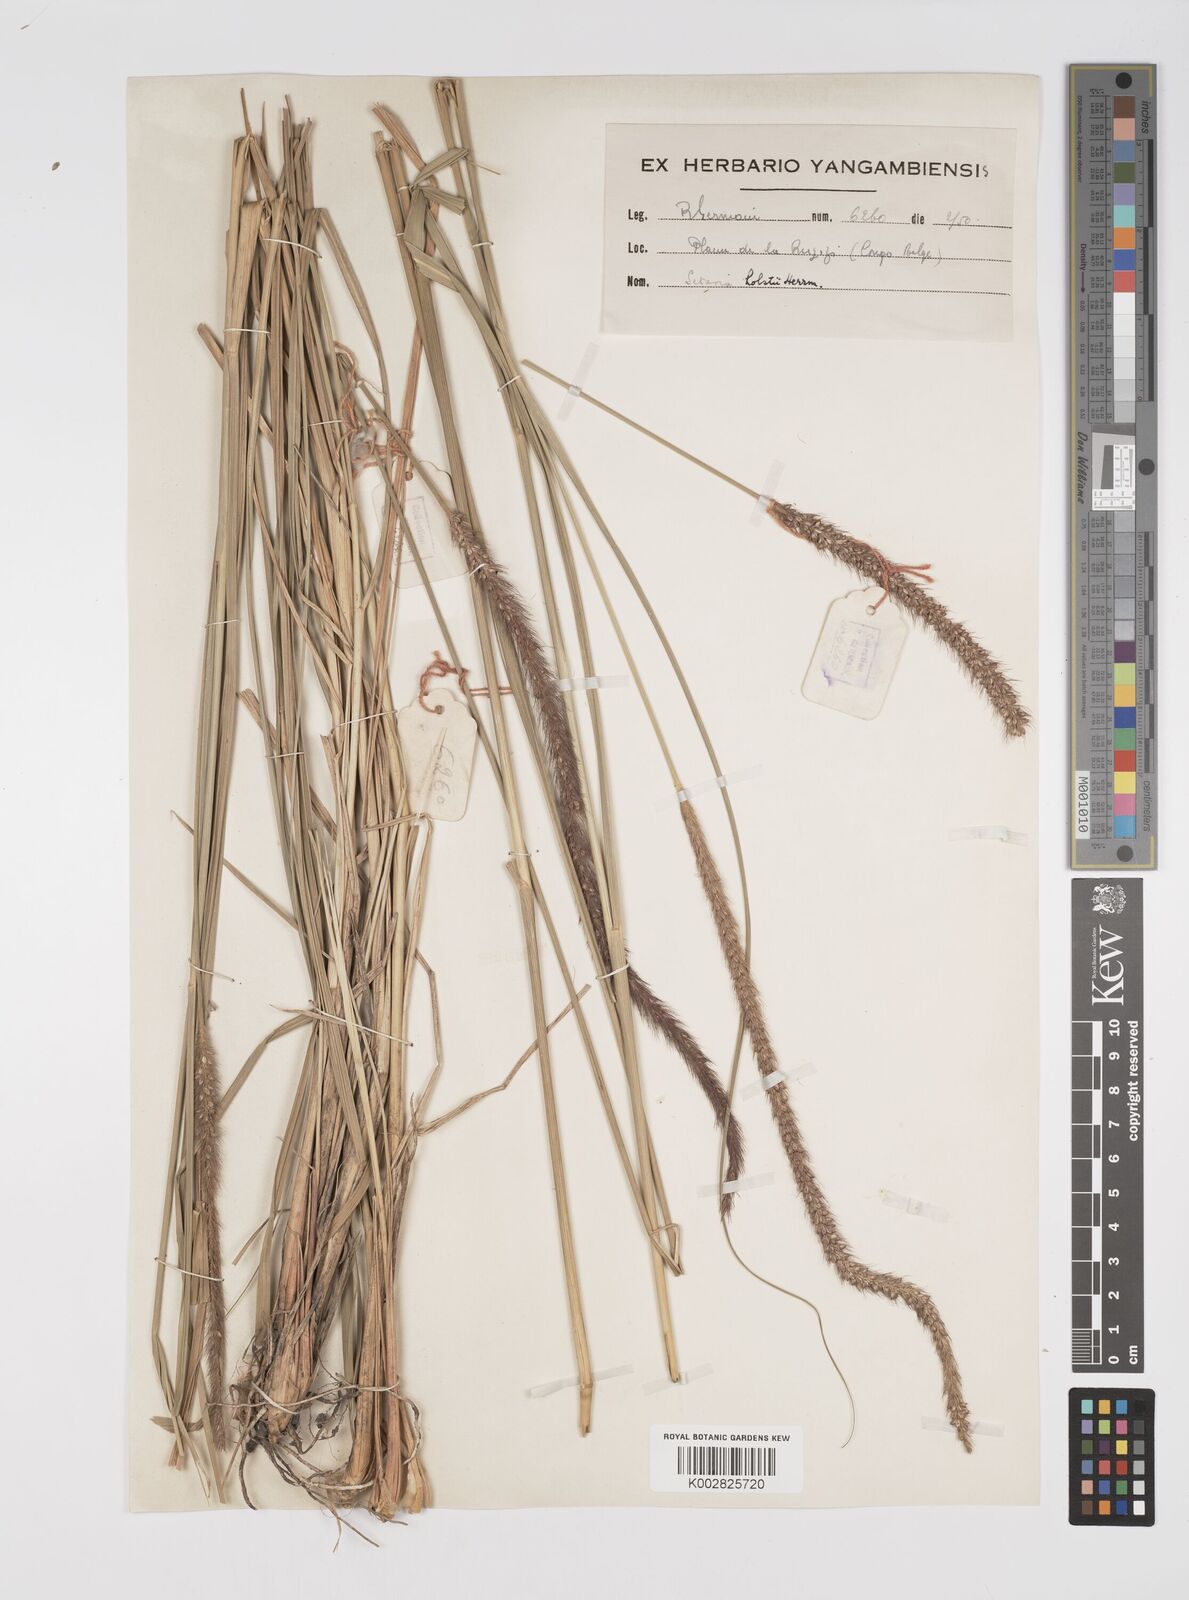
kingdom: Plantae
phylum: Tracheophyta
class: Liliopsida
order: Poales
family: Poaceae
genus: Setaria
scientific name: Setaria incrassata
